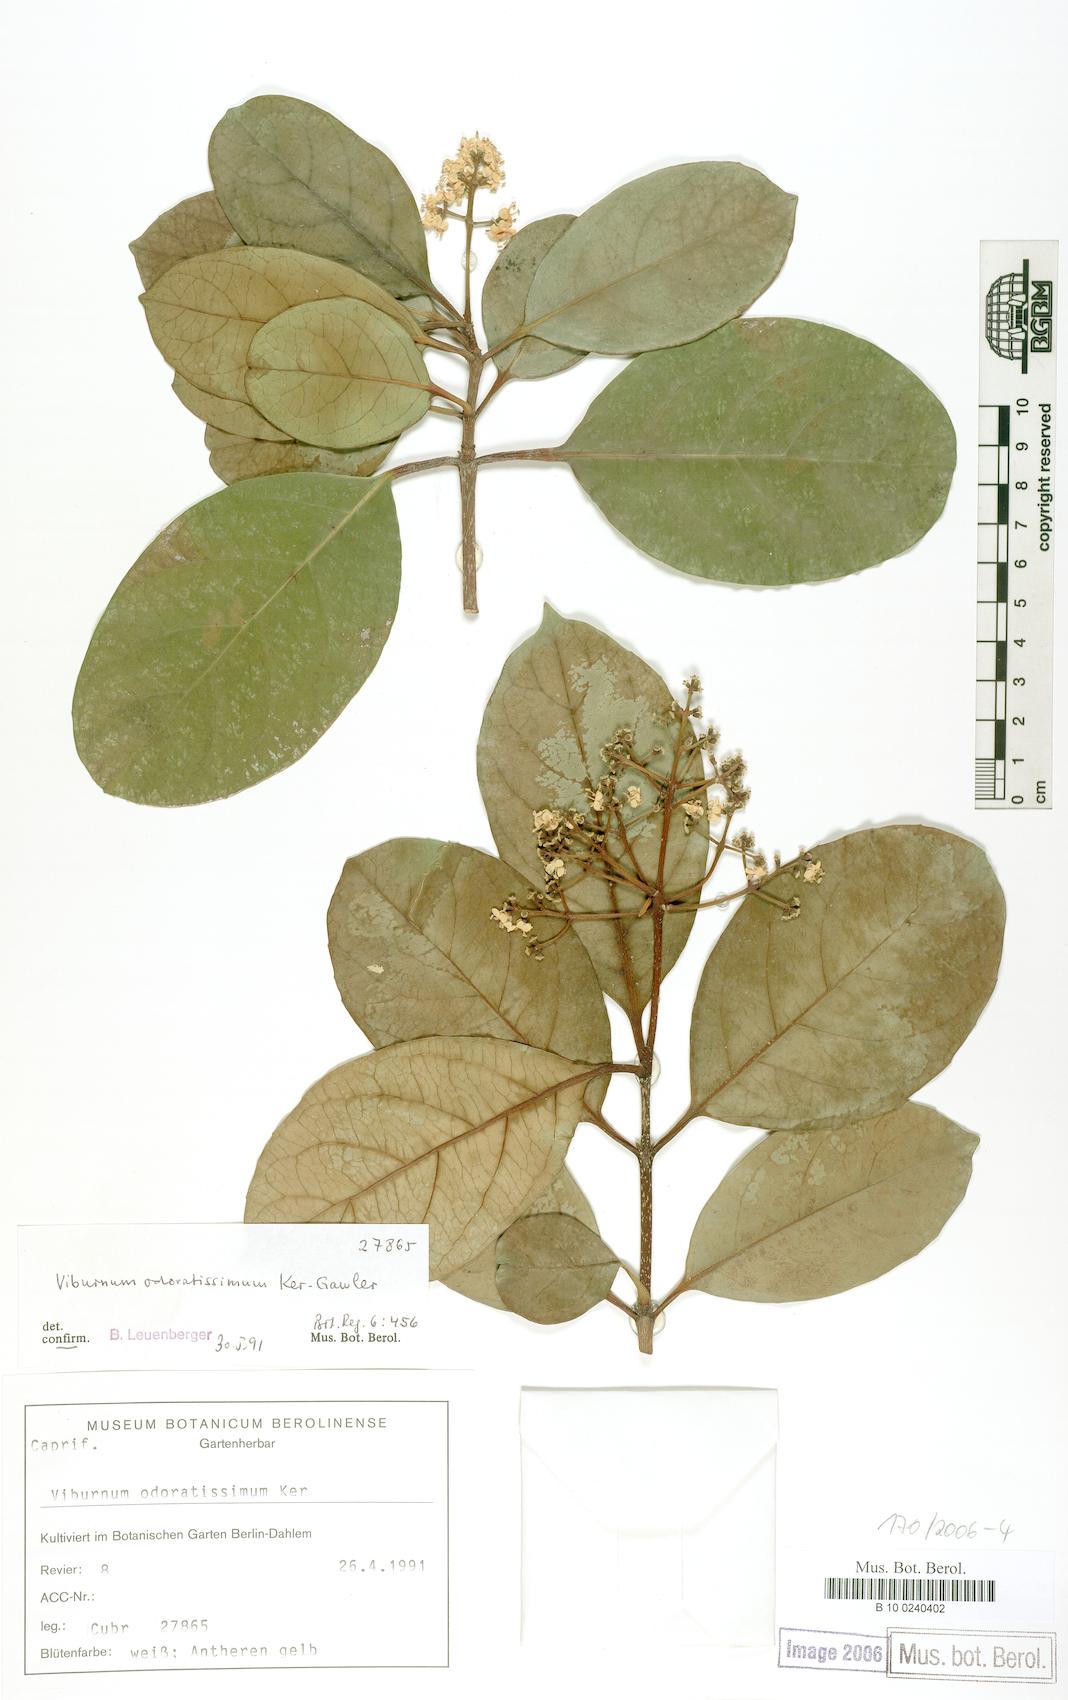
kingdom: Plantae
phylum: Tracheophyta
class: Magnoliopsida
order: Dipsacales
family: Viburnaceae
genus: Viburnum
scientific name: Viburnum odoratissimum
